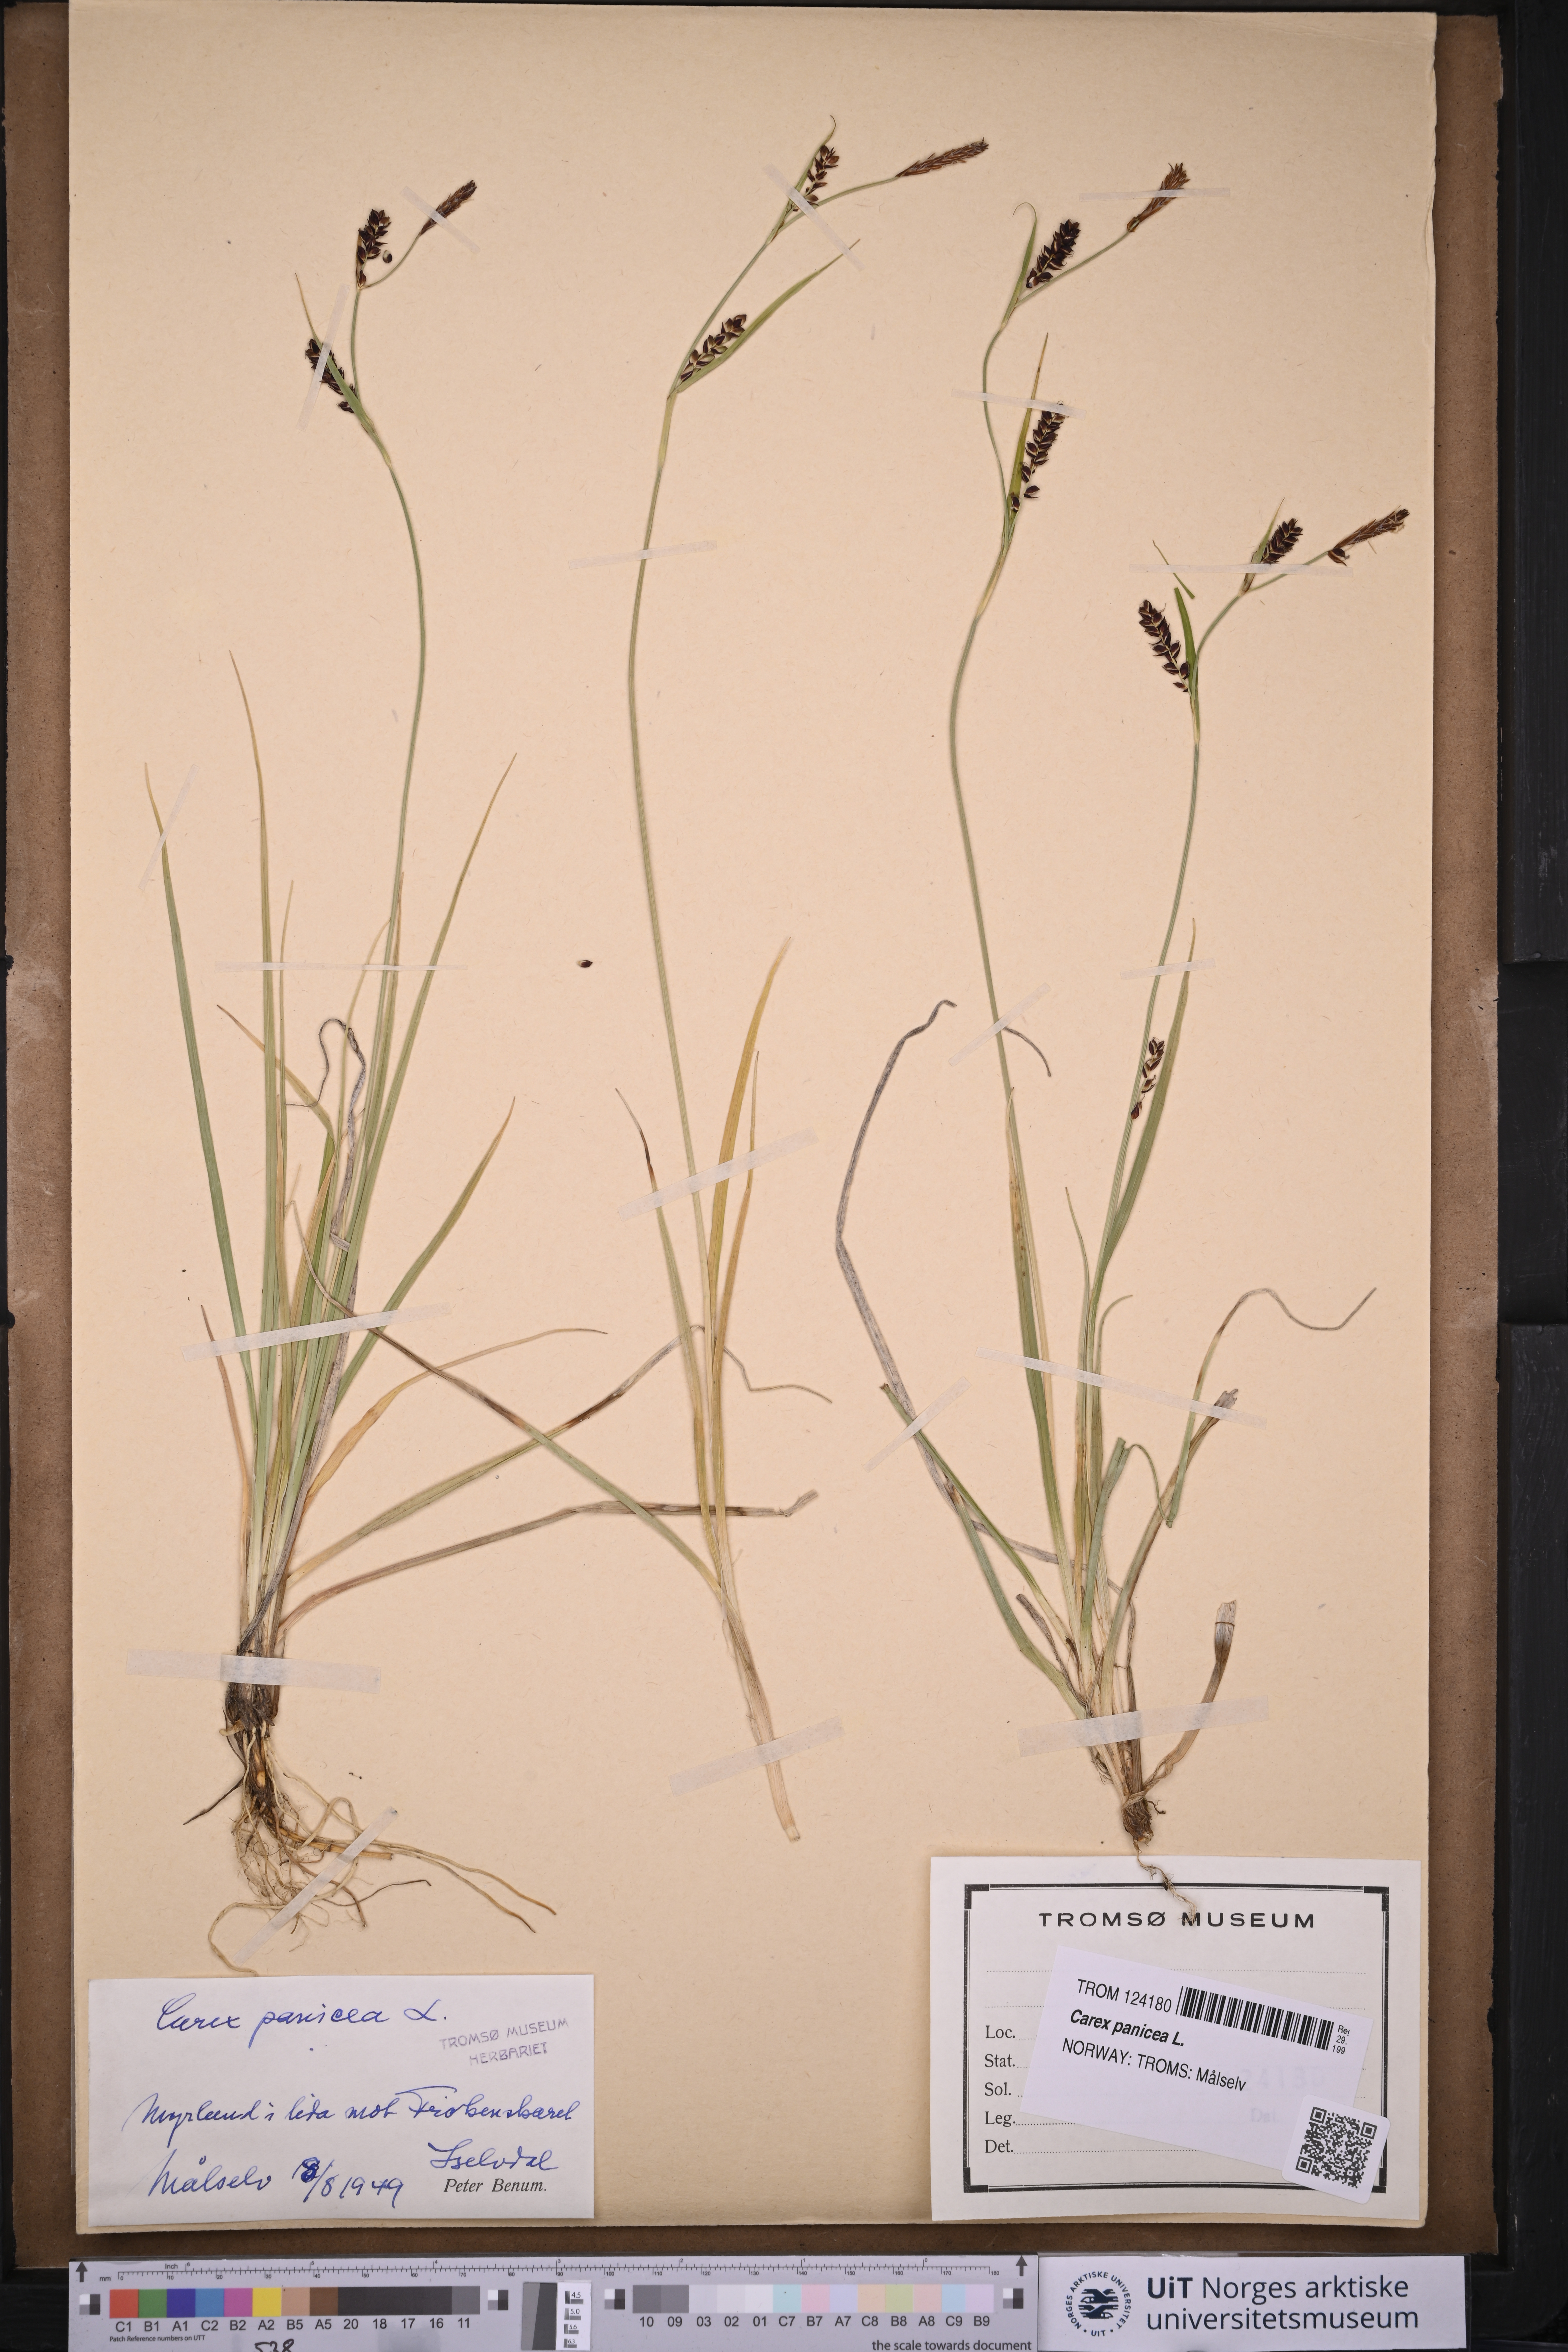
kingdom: Plantae
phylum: Tracheophyta
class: Liliopsida
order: Poales
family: Cyperaceae
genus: Carex
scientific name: Carex panicea
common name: Carnation sedge
